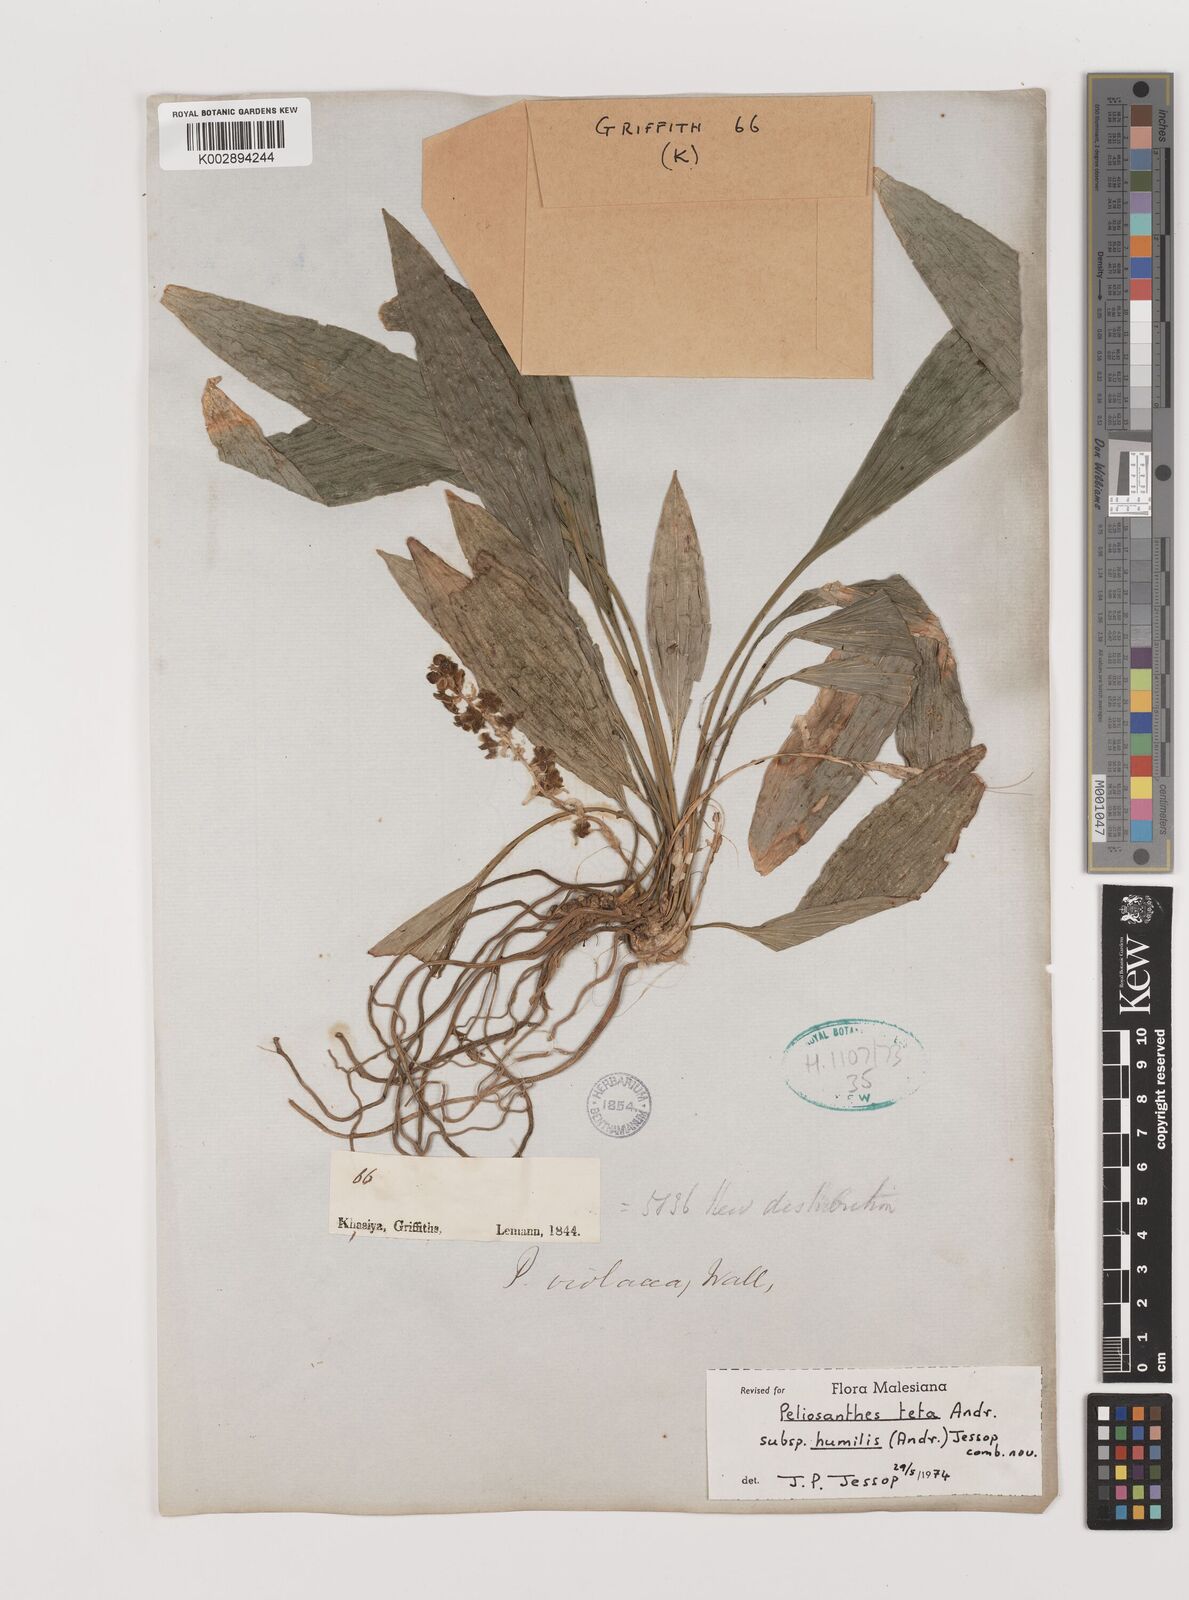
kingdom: Plantae
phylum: Tracheophyta
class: Liliopsida
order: Asparagales
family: Asparagaceae
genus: Peliosanthes
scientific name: Peliosanthes teta
